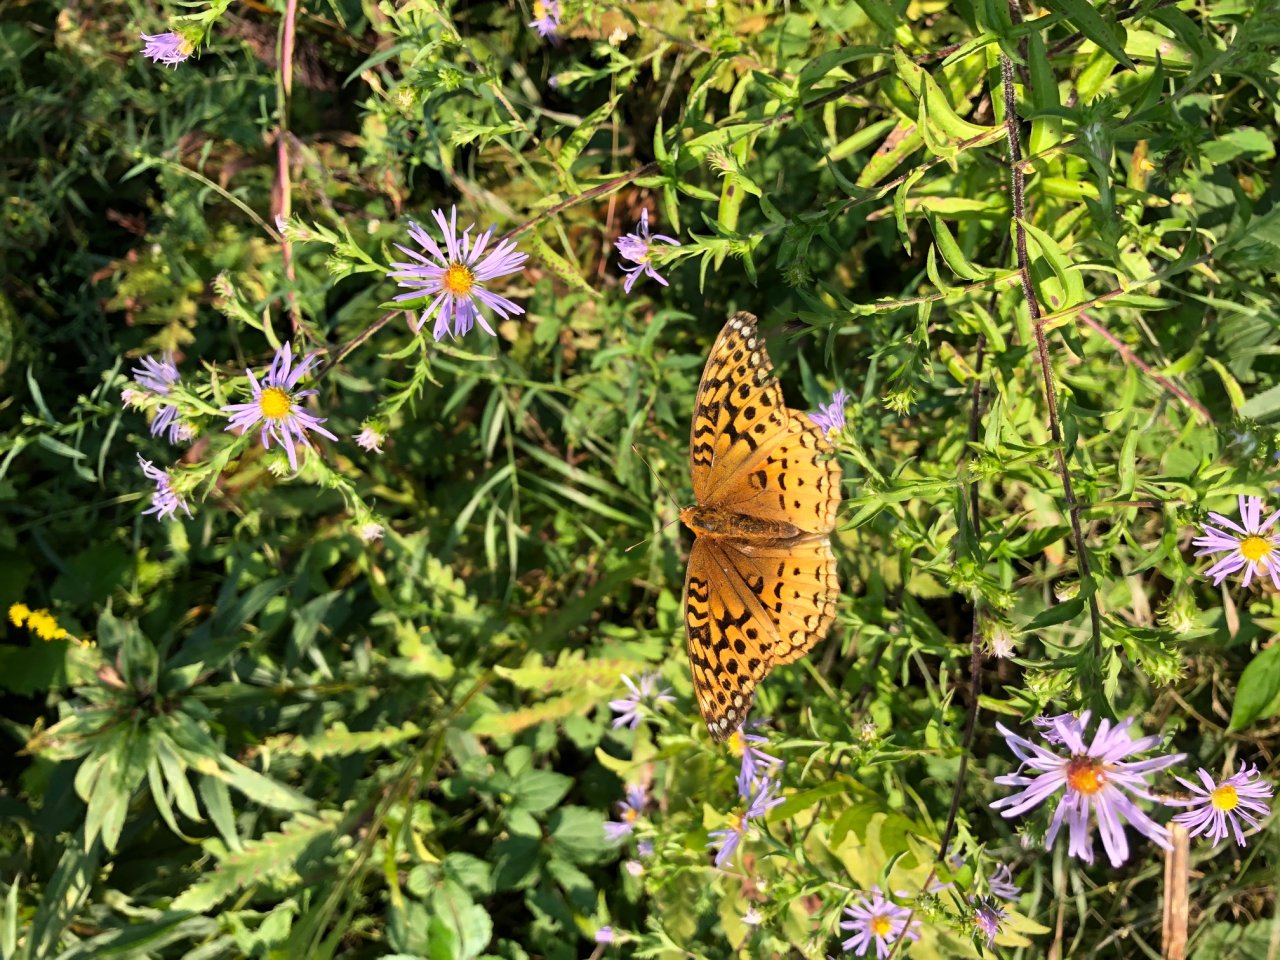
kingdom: Animalia
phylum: Arthropoda
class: Insecta
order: Lepidoptera
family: Nymphalidae
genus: Speyeria
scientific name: Speyeria cybele
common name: Great Spangled Fritillary
